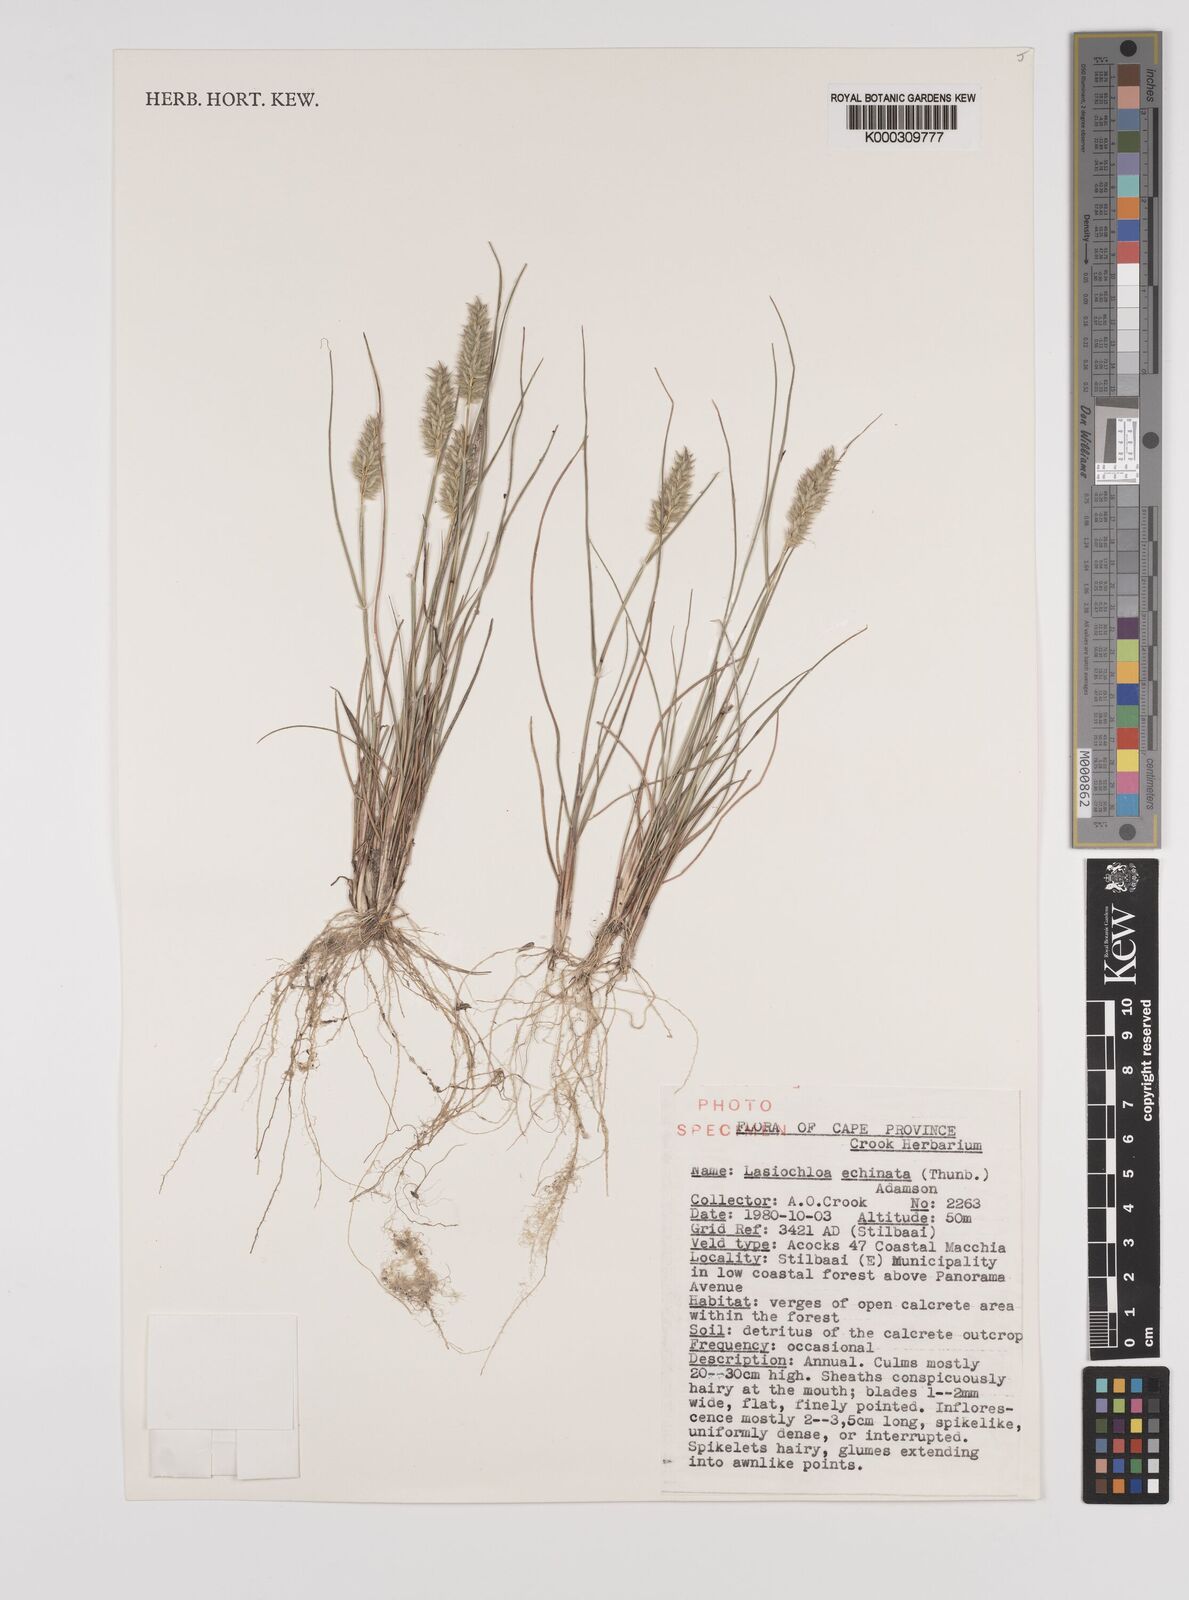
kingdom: Plantae
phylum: Tracheophyta
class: Liliopsida
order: Poales
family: Poaceae
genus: Tribolium
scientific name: Tribolium hispidum
